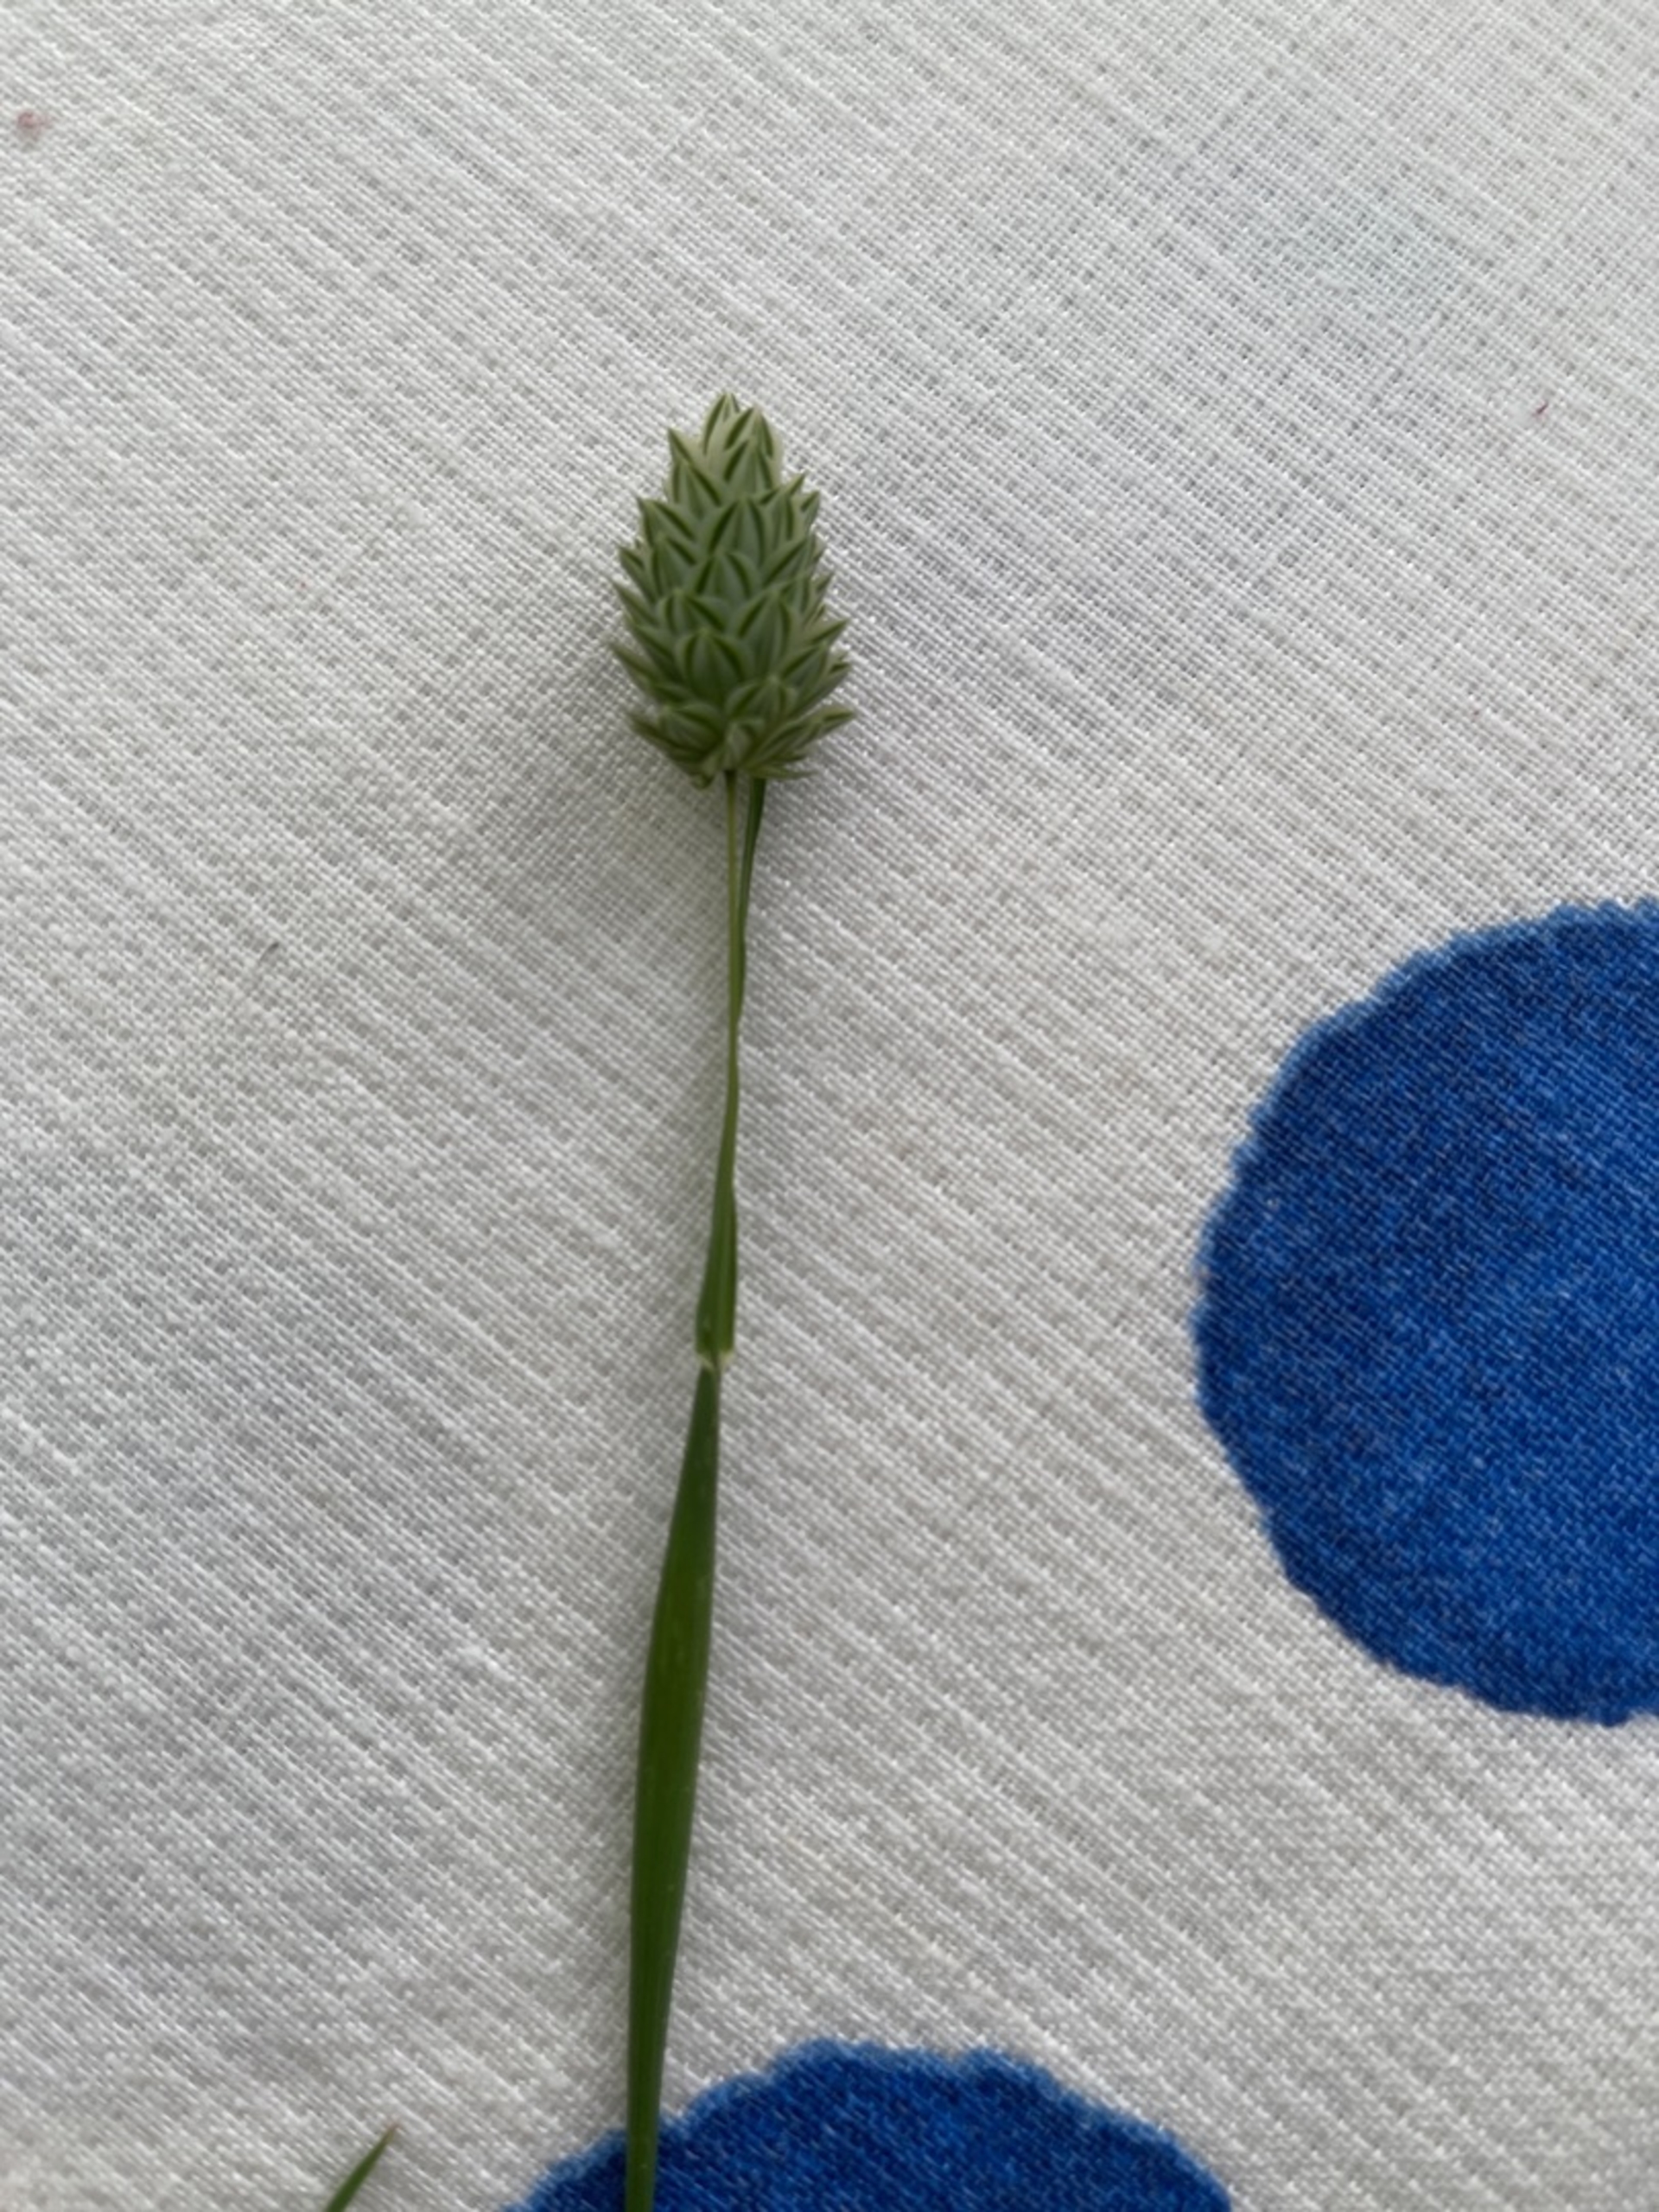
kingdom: Plantae
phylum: Tracheophyta
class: Liliopsida
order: Poales
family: Poaceae
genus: Phalaris
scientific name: Phalaris canariensis
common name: Kanariegræs
